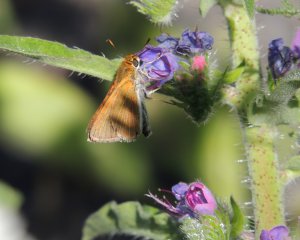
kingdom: Animalia
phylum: Arthropoda
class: Insecta
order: Lepidoptera
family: Hesperiidae
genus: Euphyes
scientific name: Euphyes bimacula
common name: Two-spotted Skipper
